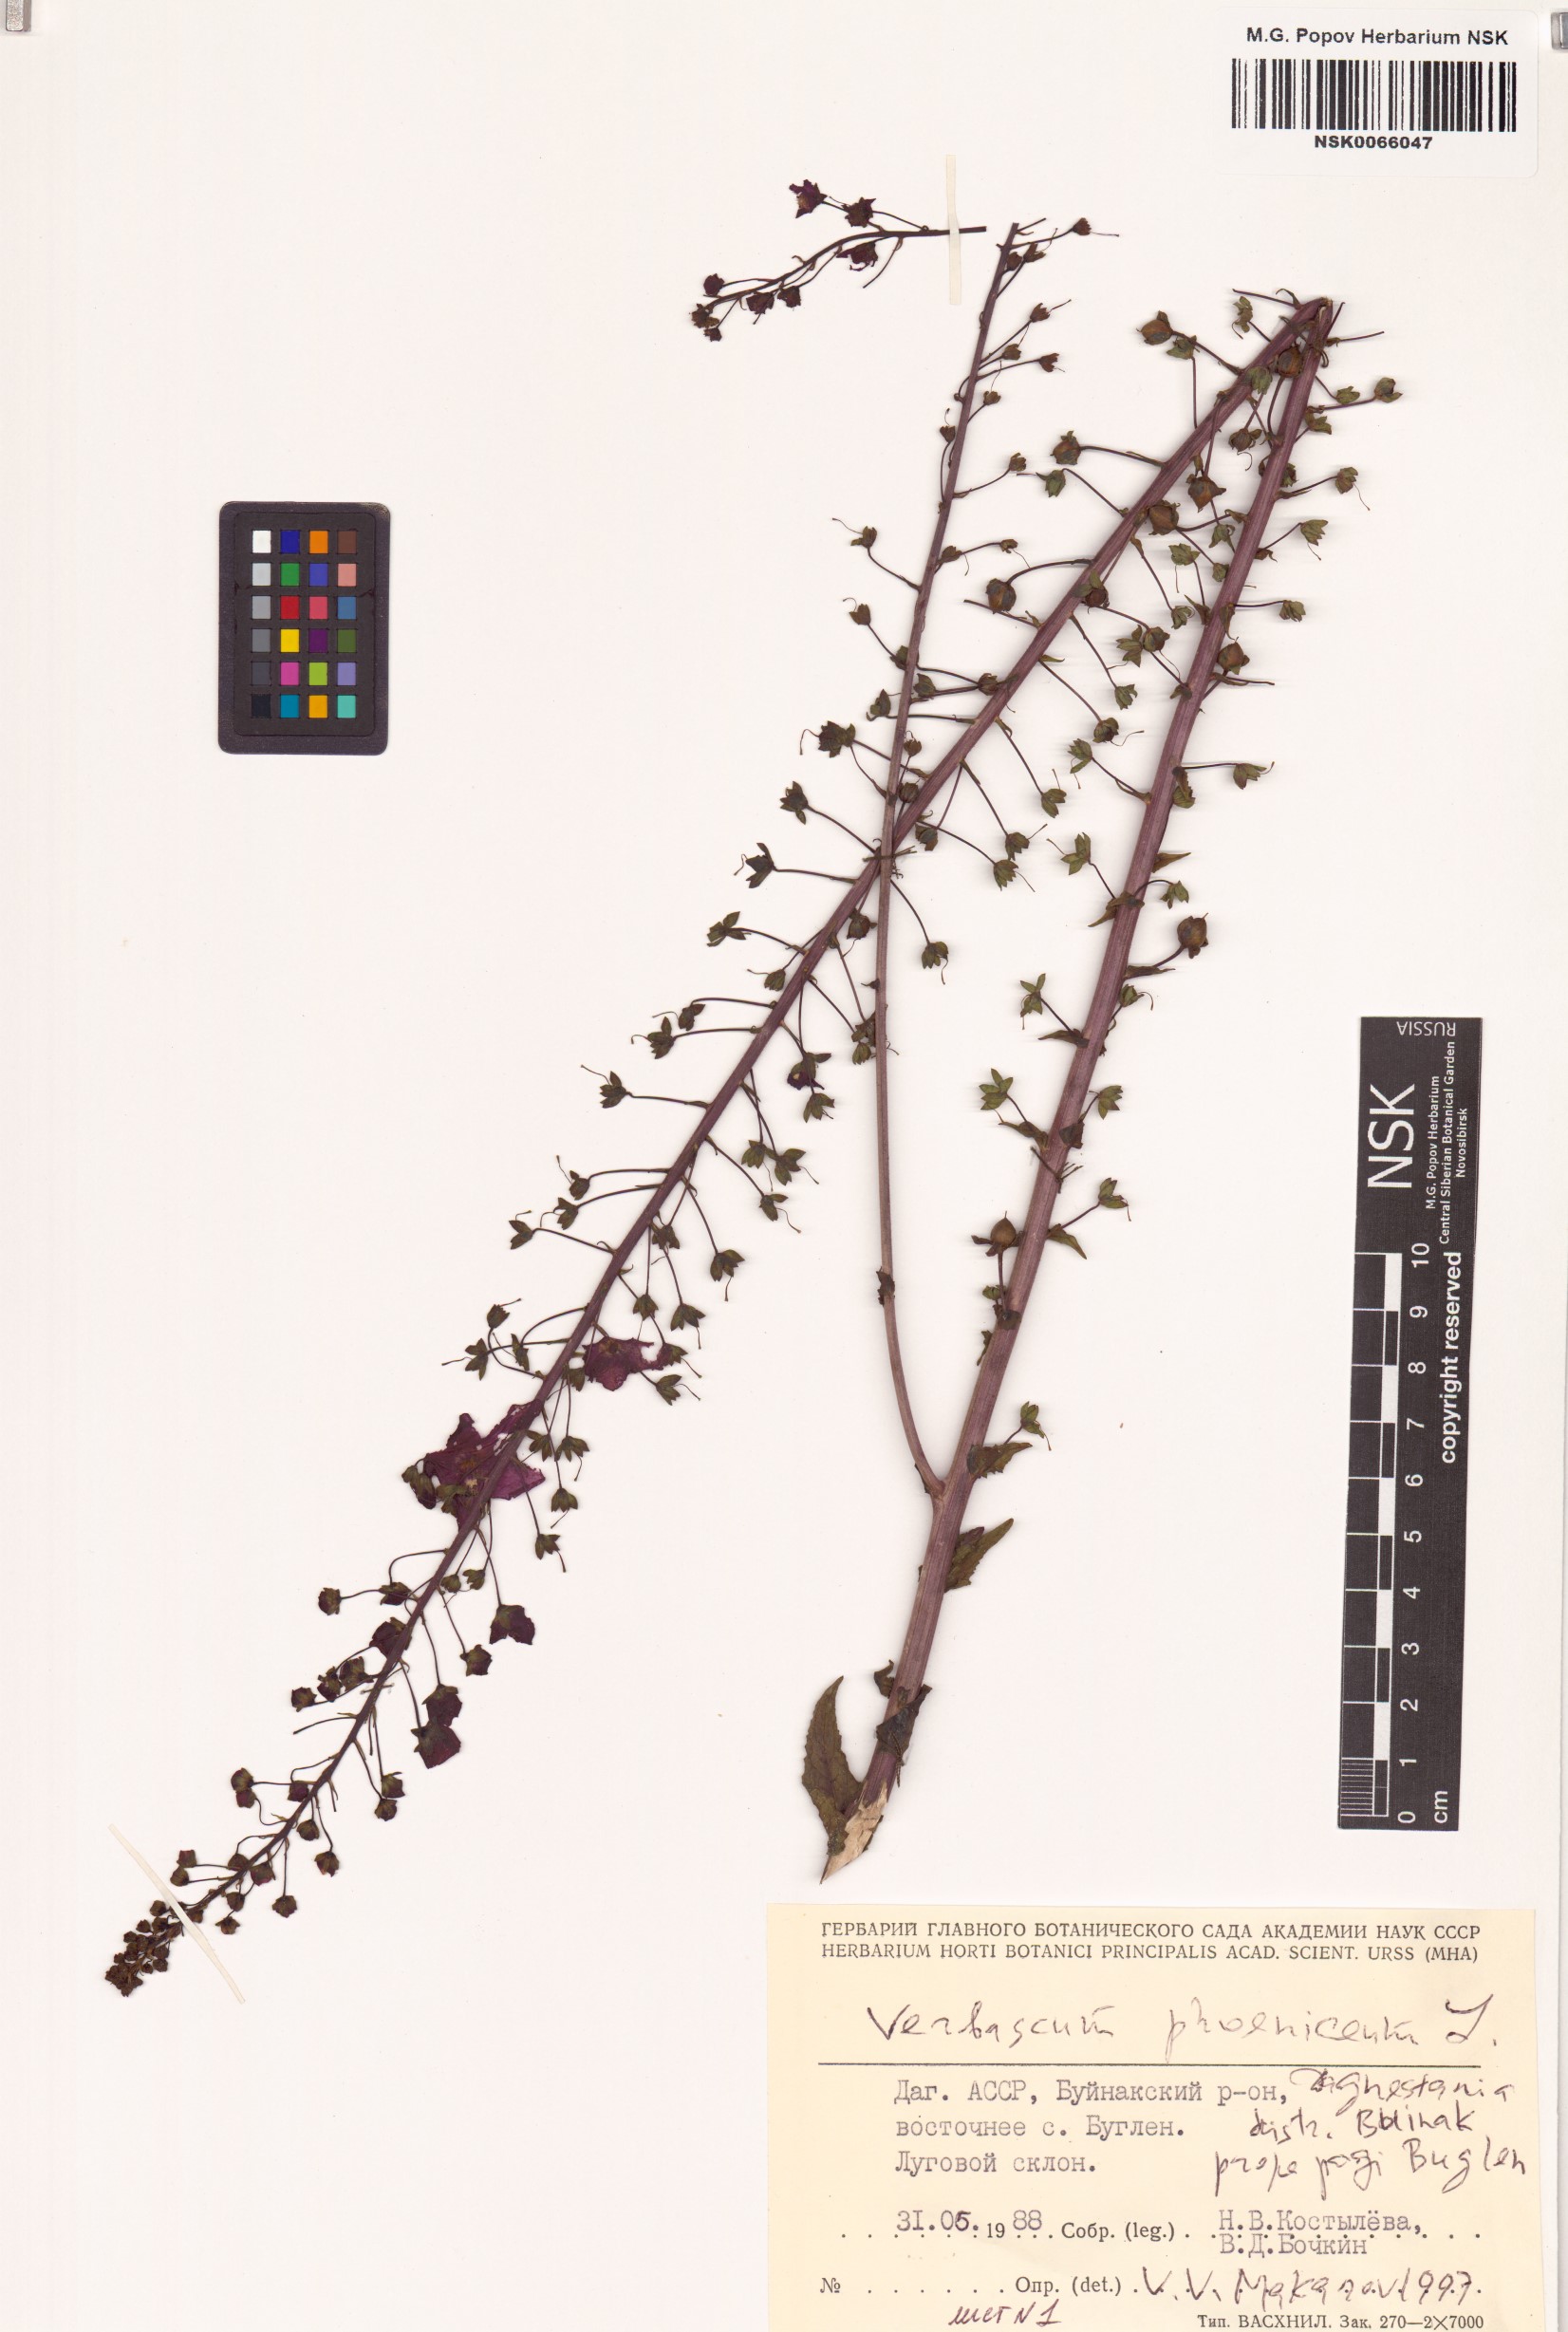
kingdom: Plantae
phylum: Tracheophyta
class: Magnoliopsida
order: Lamiales
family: Scrophulariaceae
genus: Verbascum
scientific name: Verbascum phoeniceum
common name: Purple mullein
